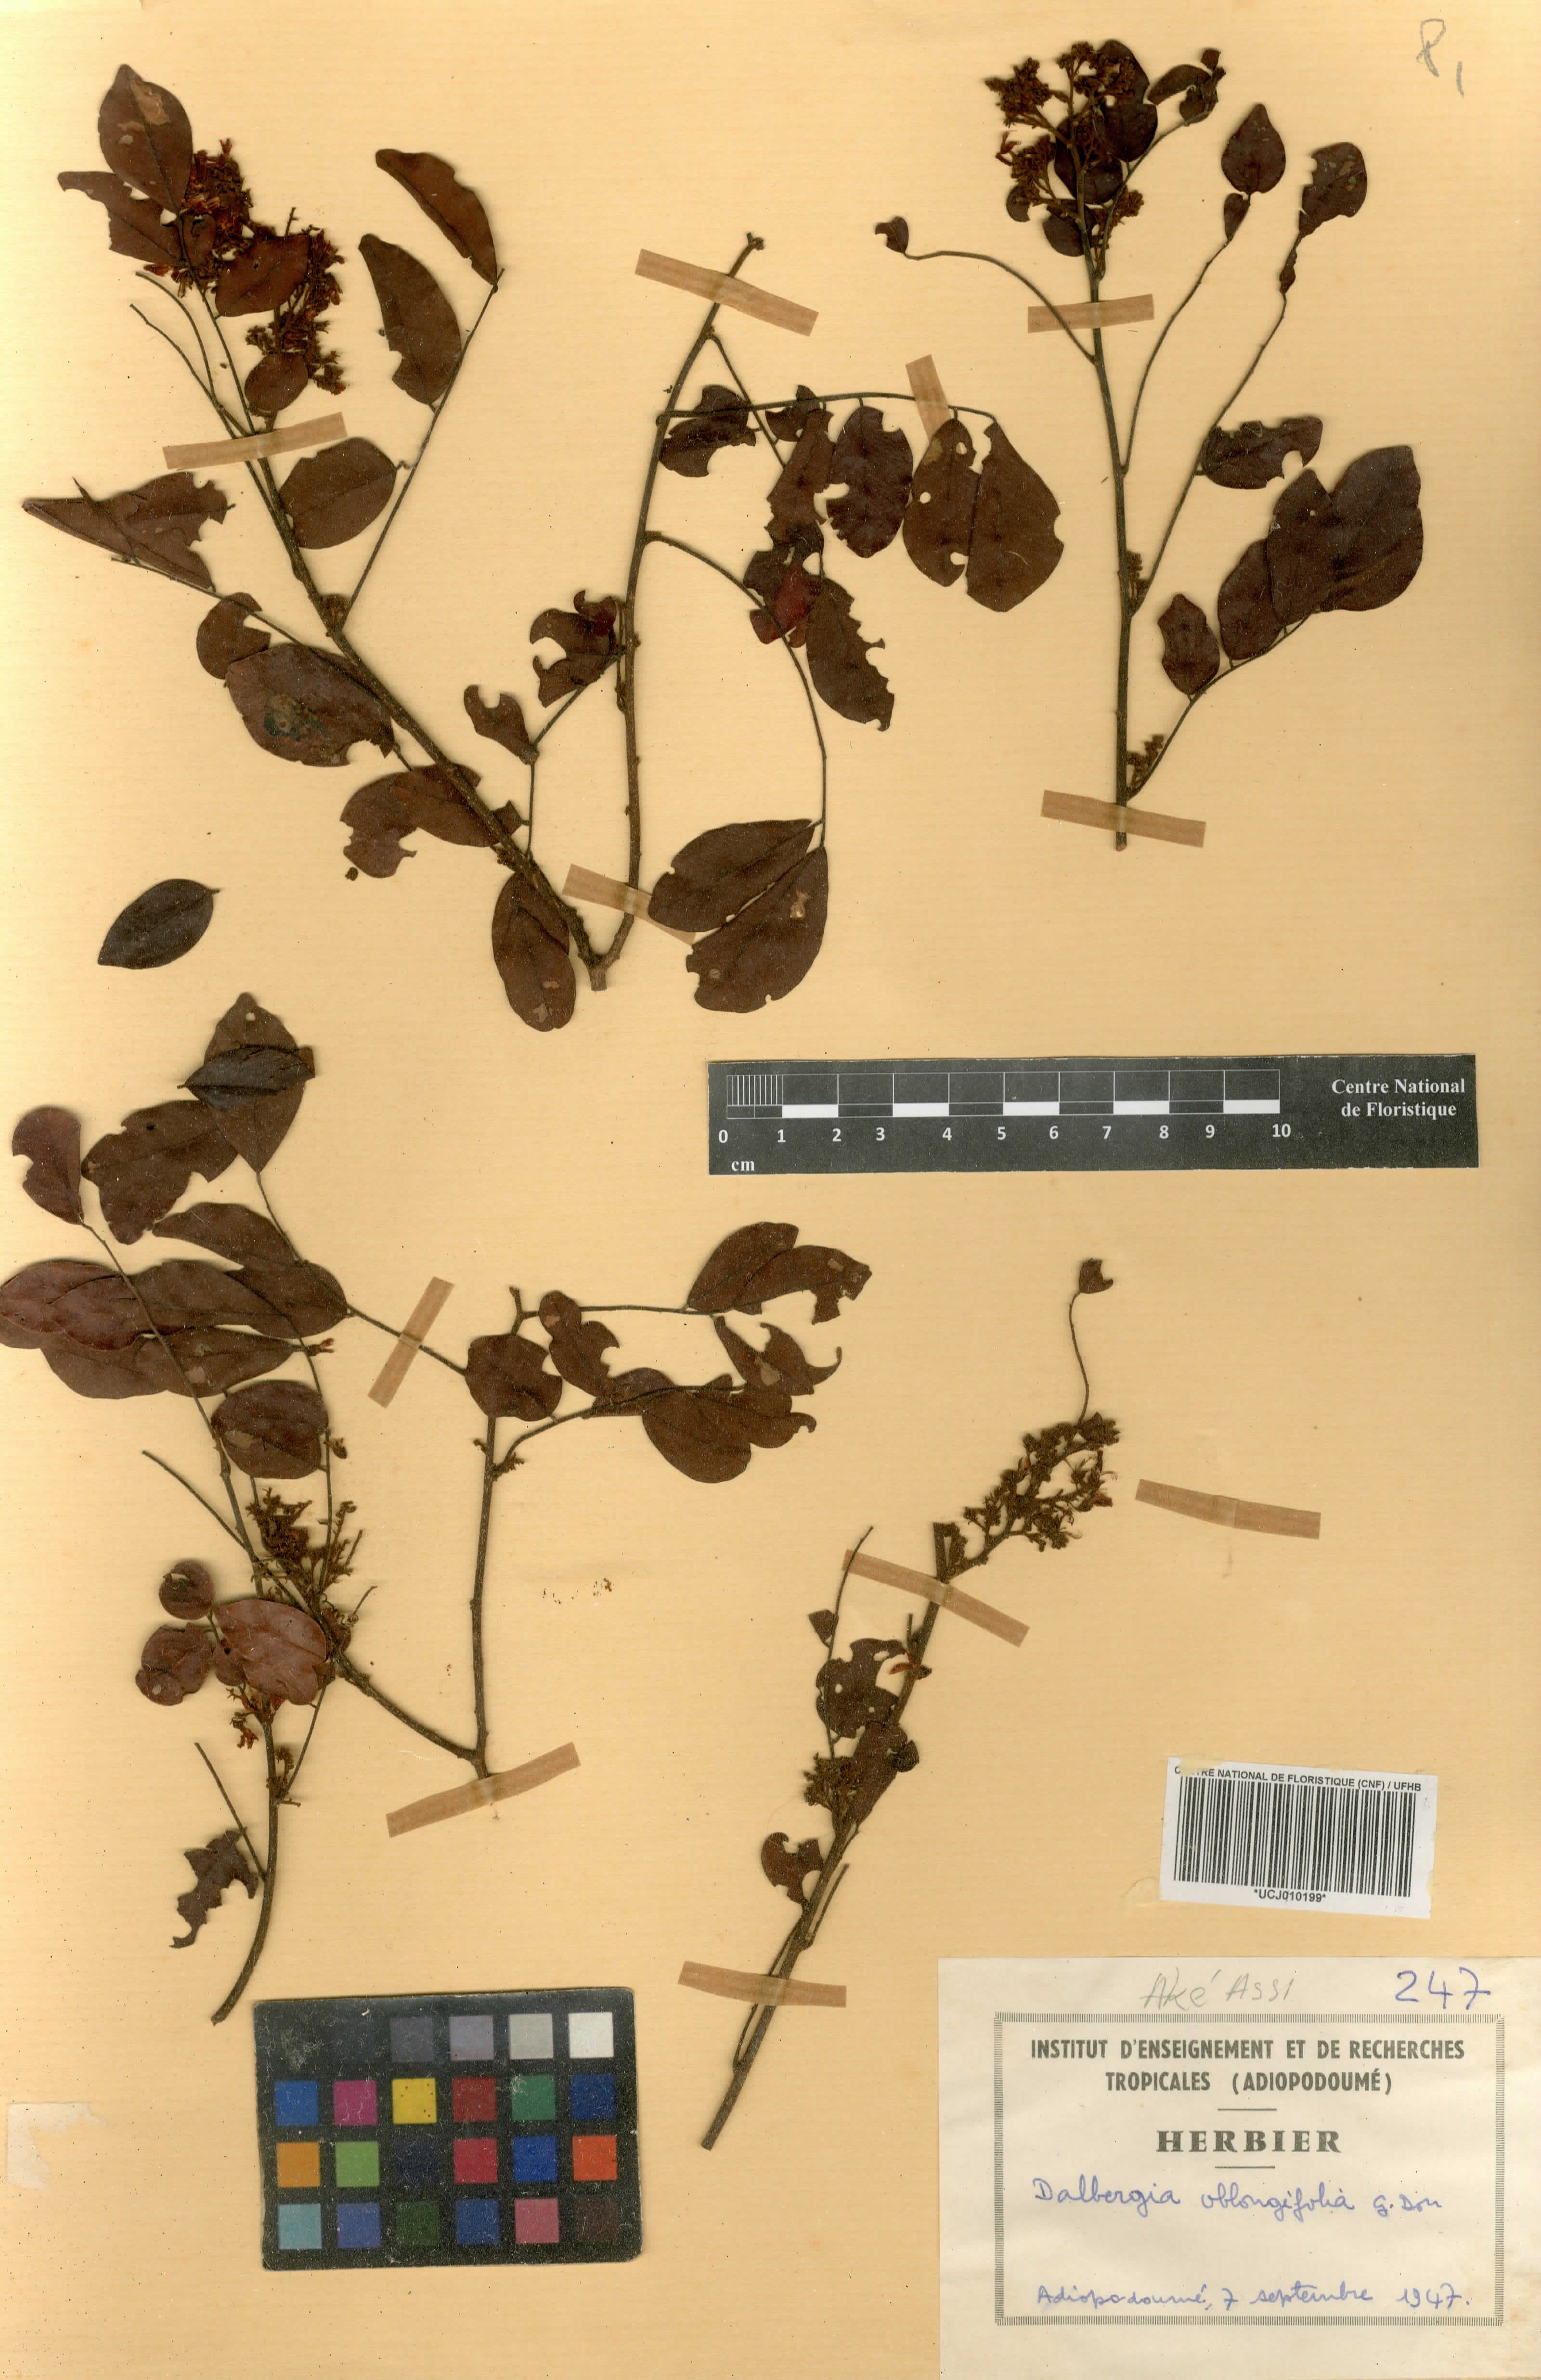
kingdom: Plantae
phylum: Tracheophyta
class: Magnoliopsida
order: Fabales
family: Fabaceae
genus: Dalbergia
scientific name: Dalbergia oblongifolia
